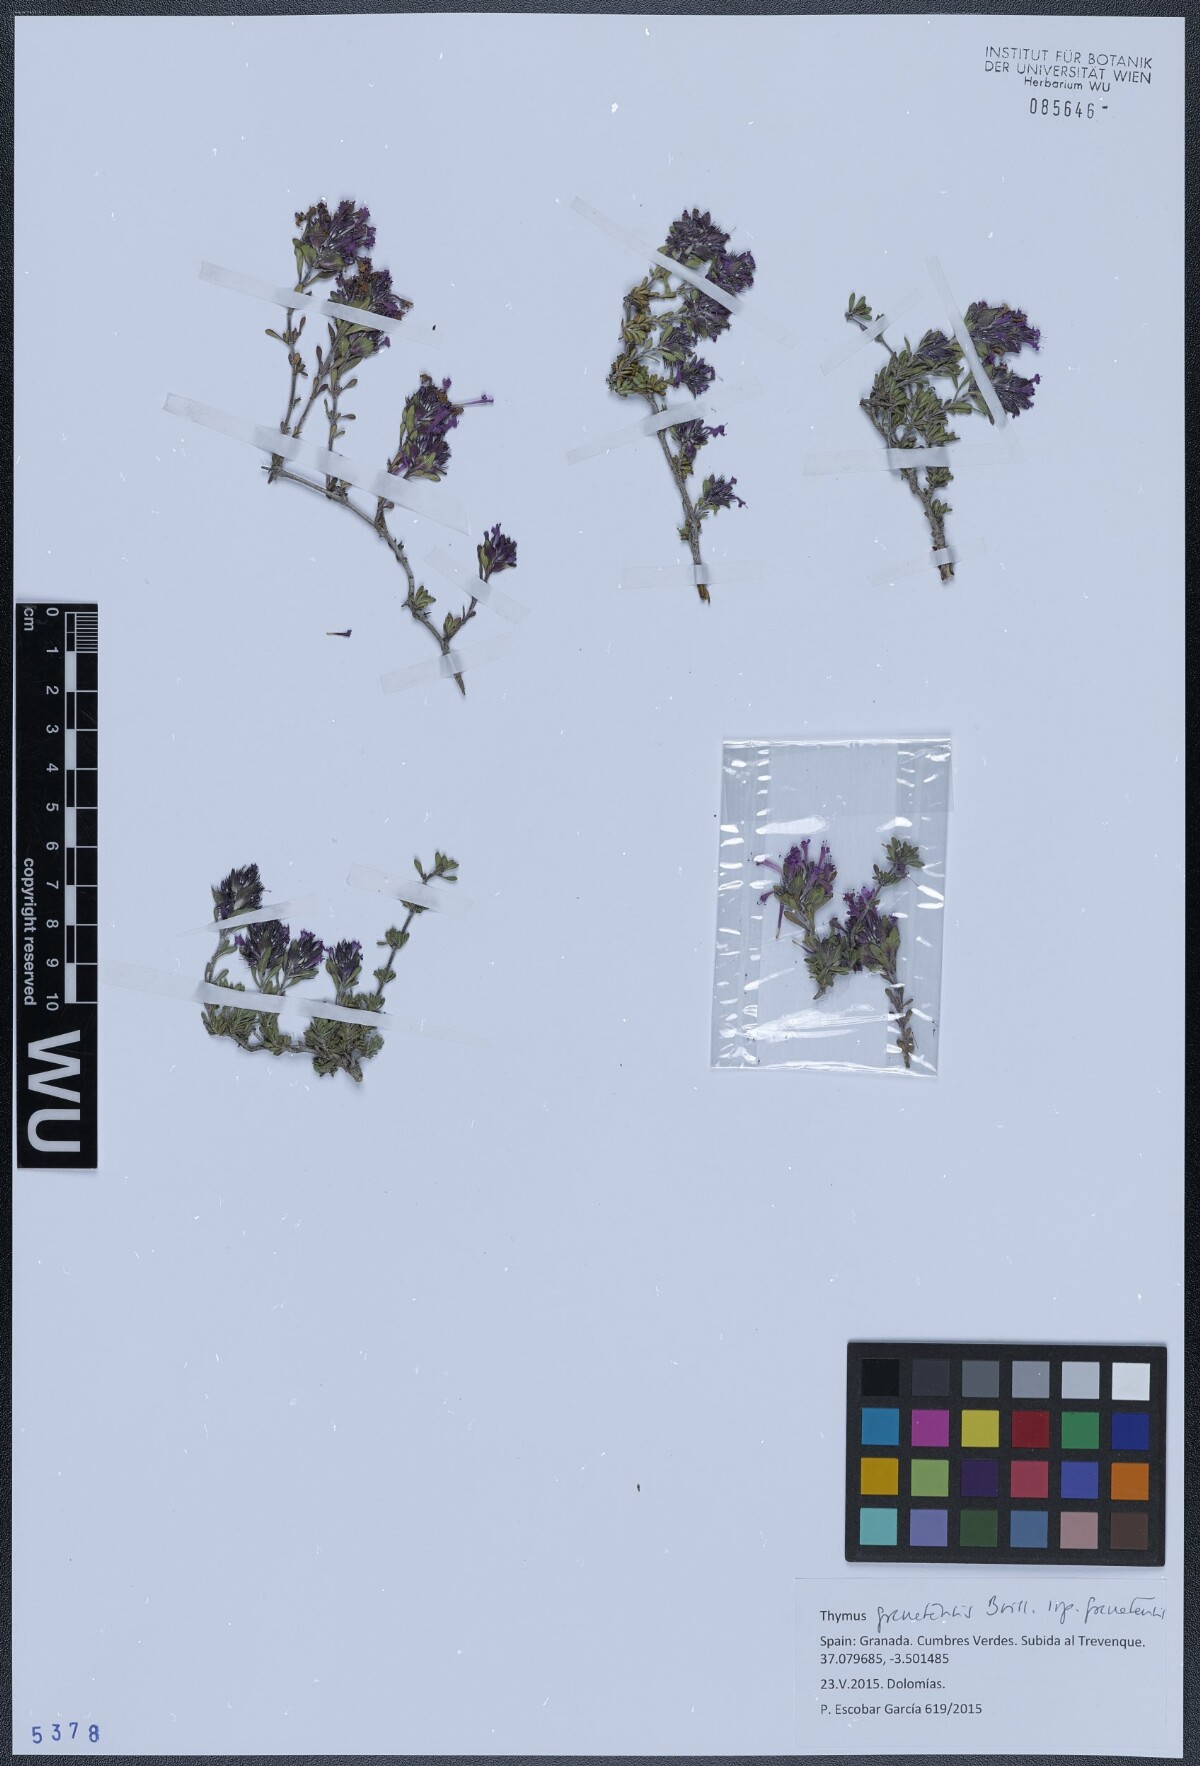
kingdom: Plantae
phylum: Tracheophyta
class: Magnoliopsida
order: Lamiales
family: Lamiaceae
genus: Thymus
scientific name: Thymus granatensis
